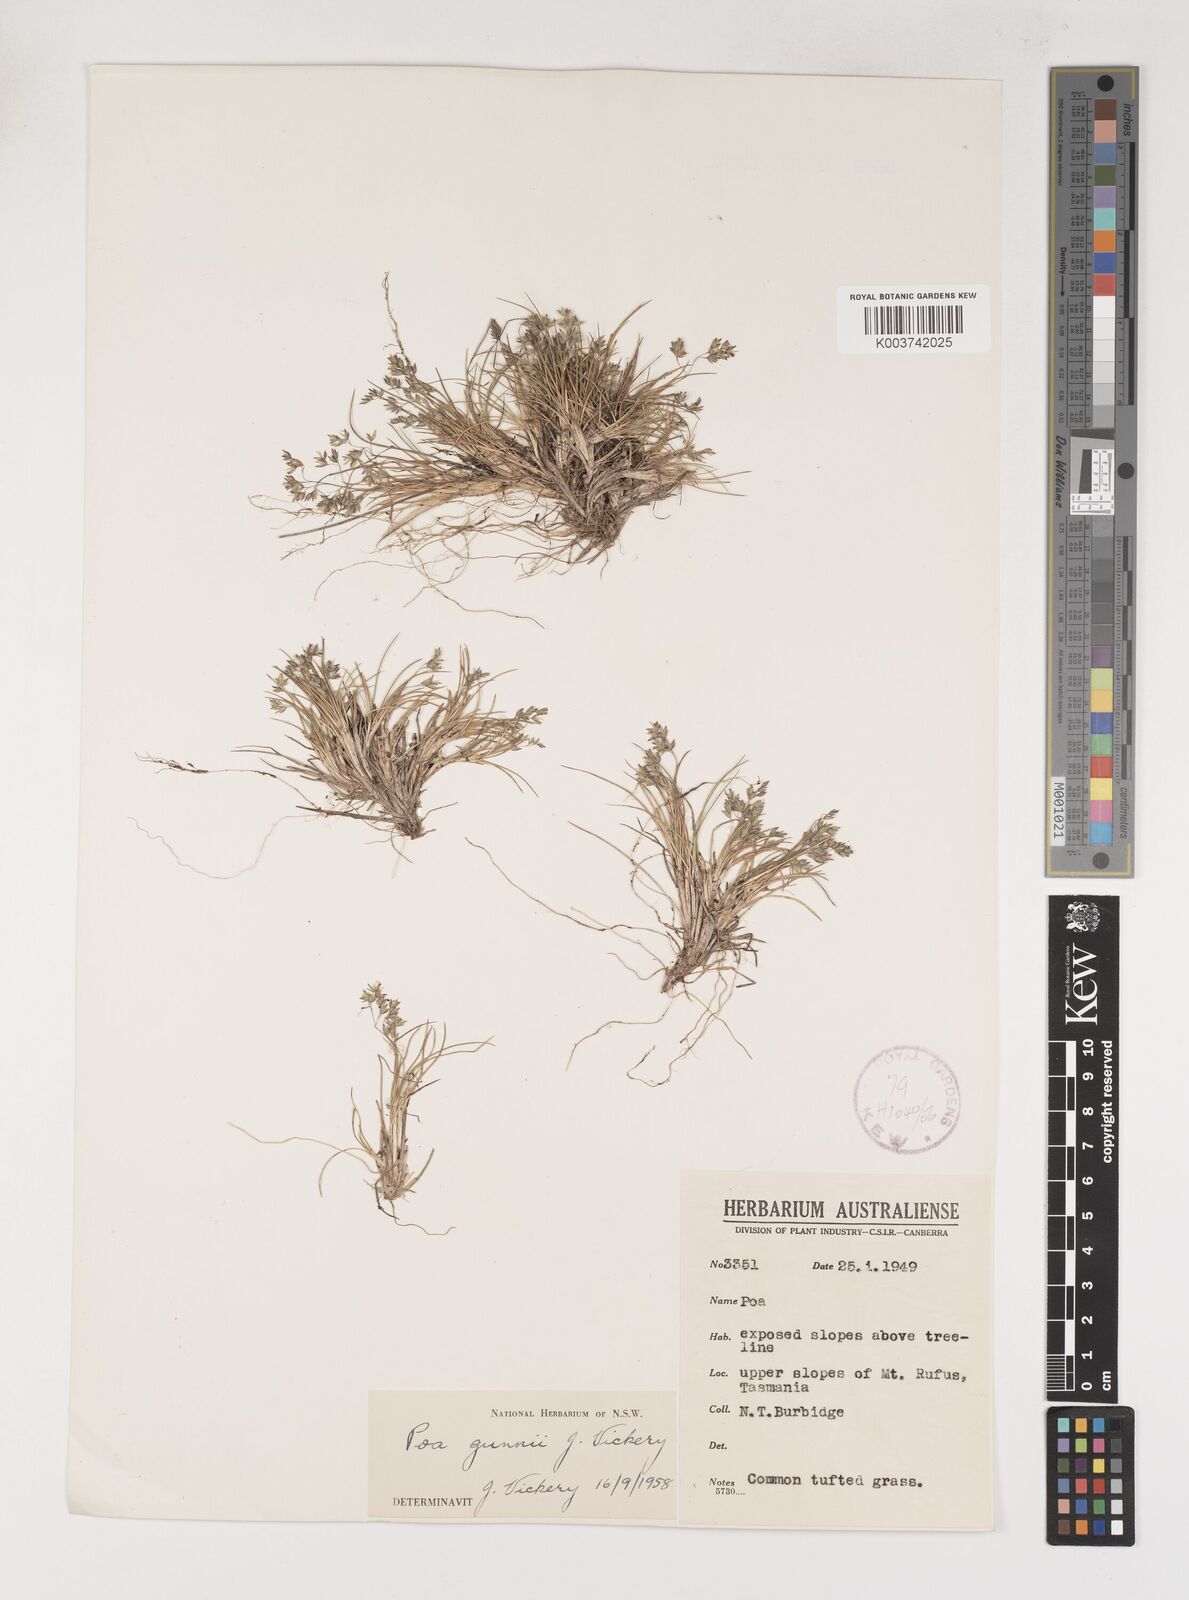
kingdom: Plantae
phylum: Tracheophyta
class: Liliopsida
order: Poales
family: Poaceae
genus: Poa
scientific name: Poa gunnii
